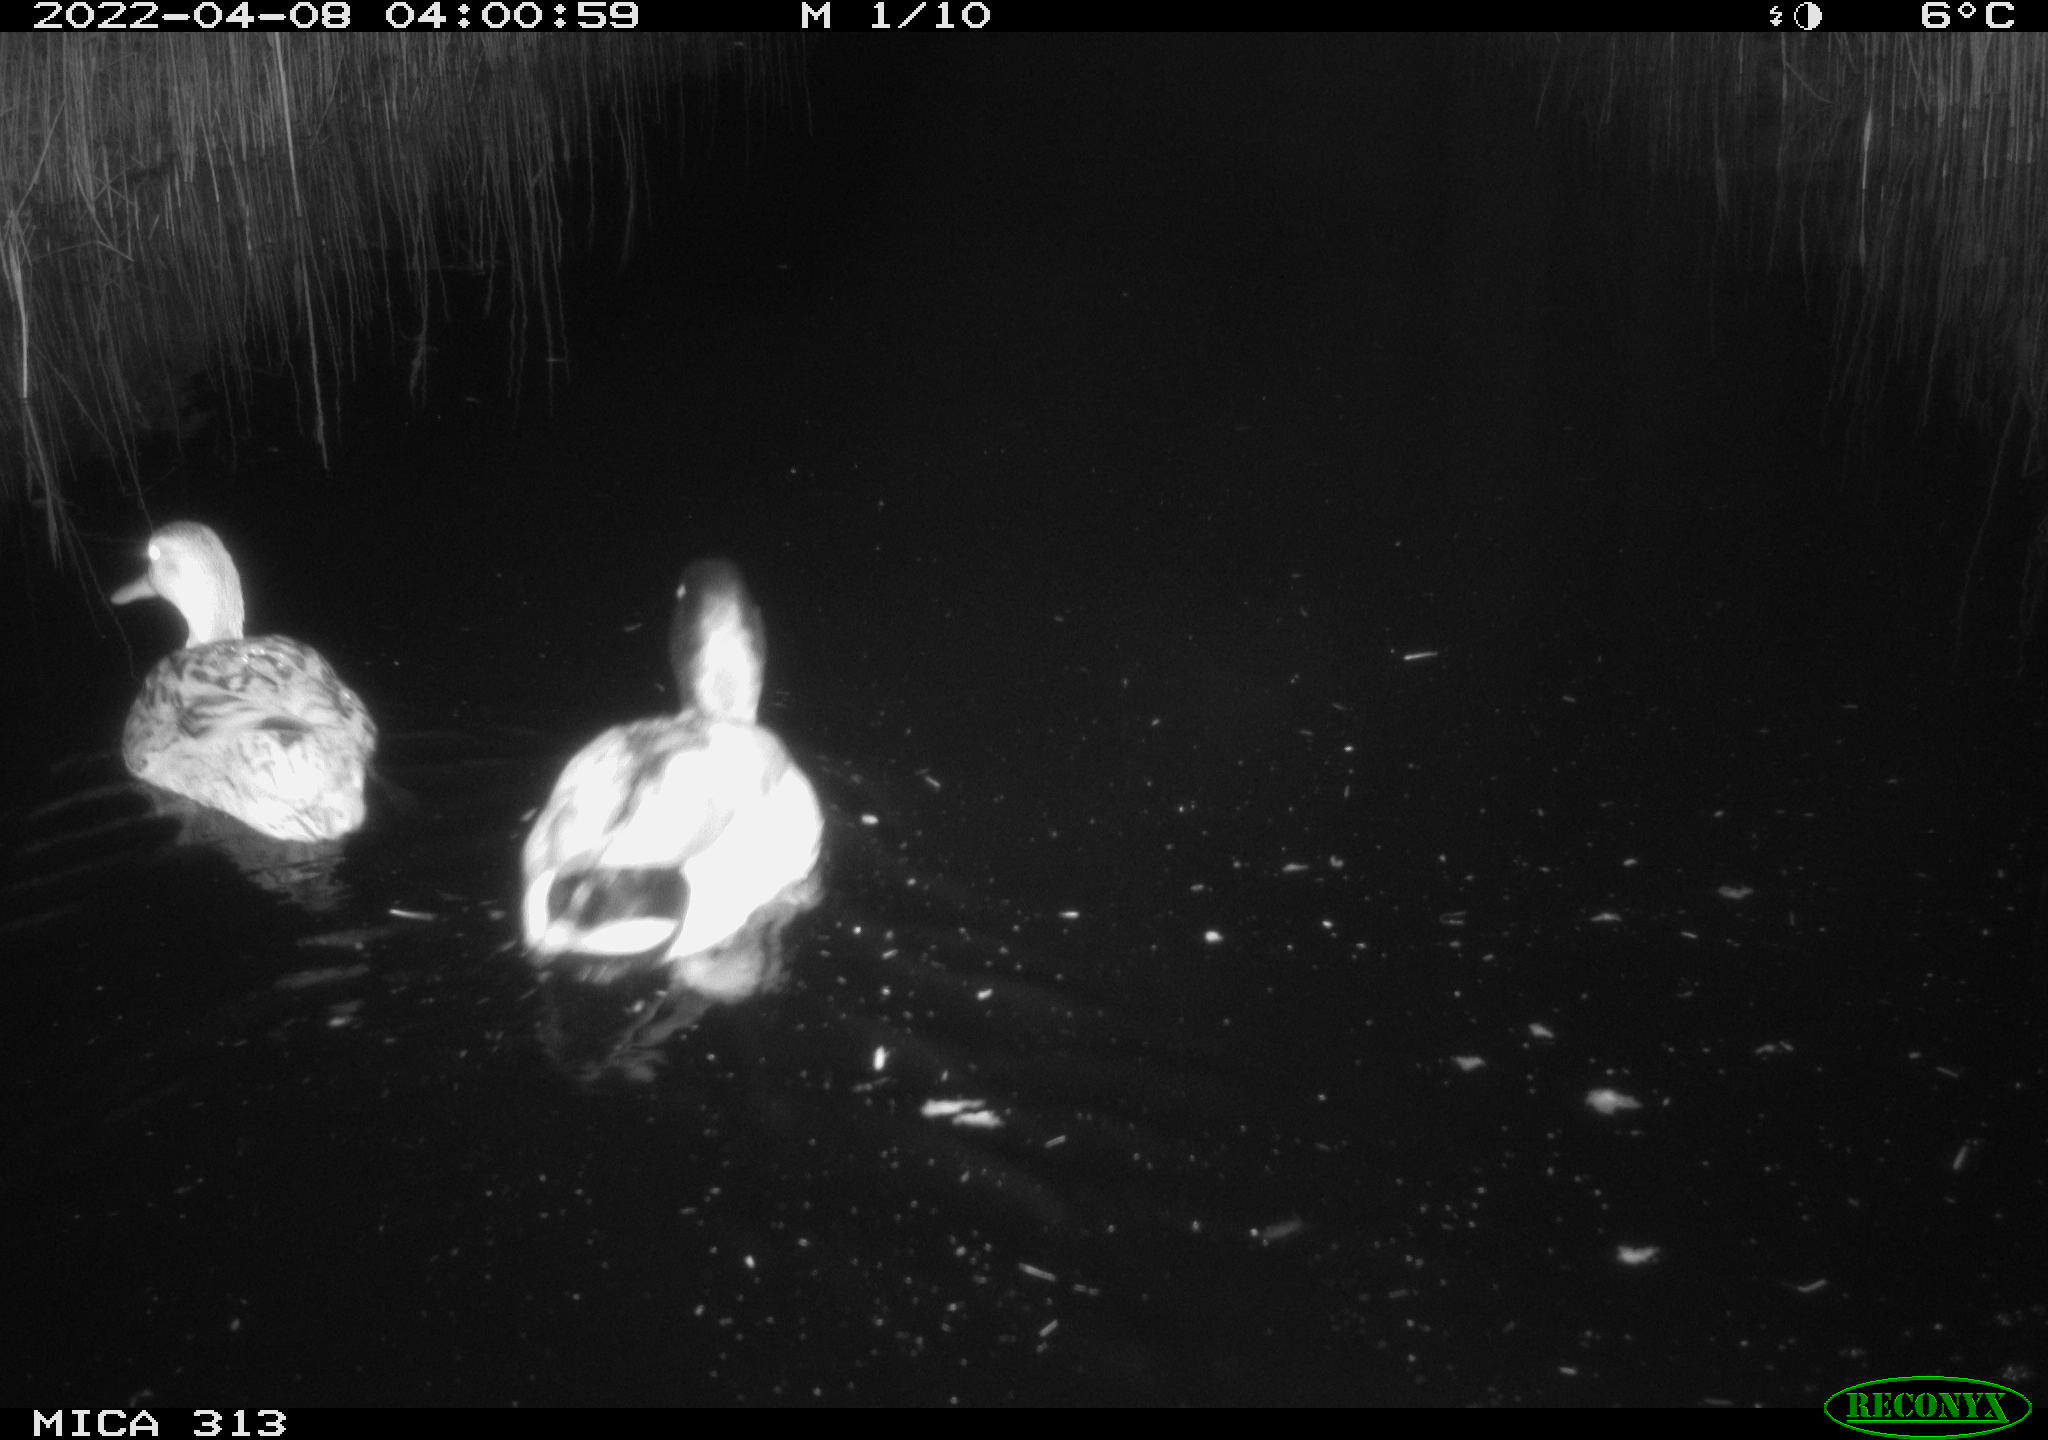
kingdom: Animalia
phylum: Chordata
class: Aves
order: Anseriformes
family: Anatidae
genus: Anas
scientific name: Anas platyrhynchos
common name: Mallard
